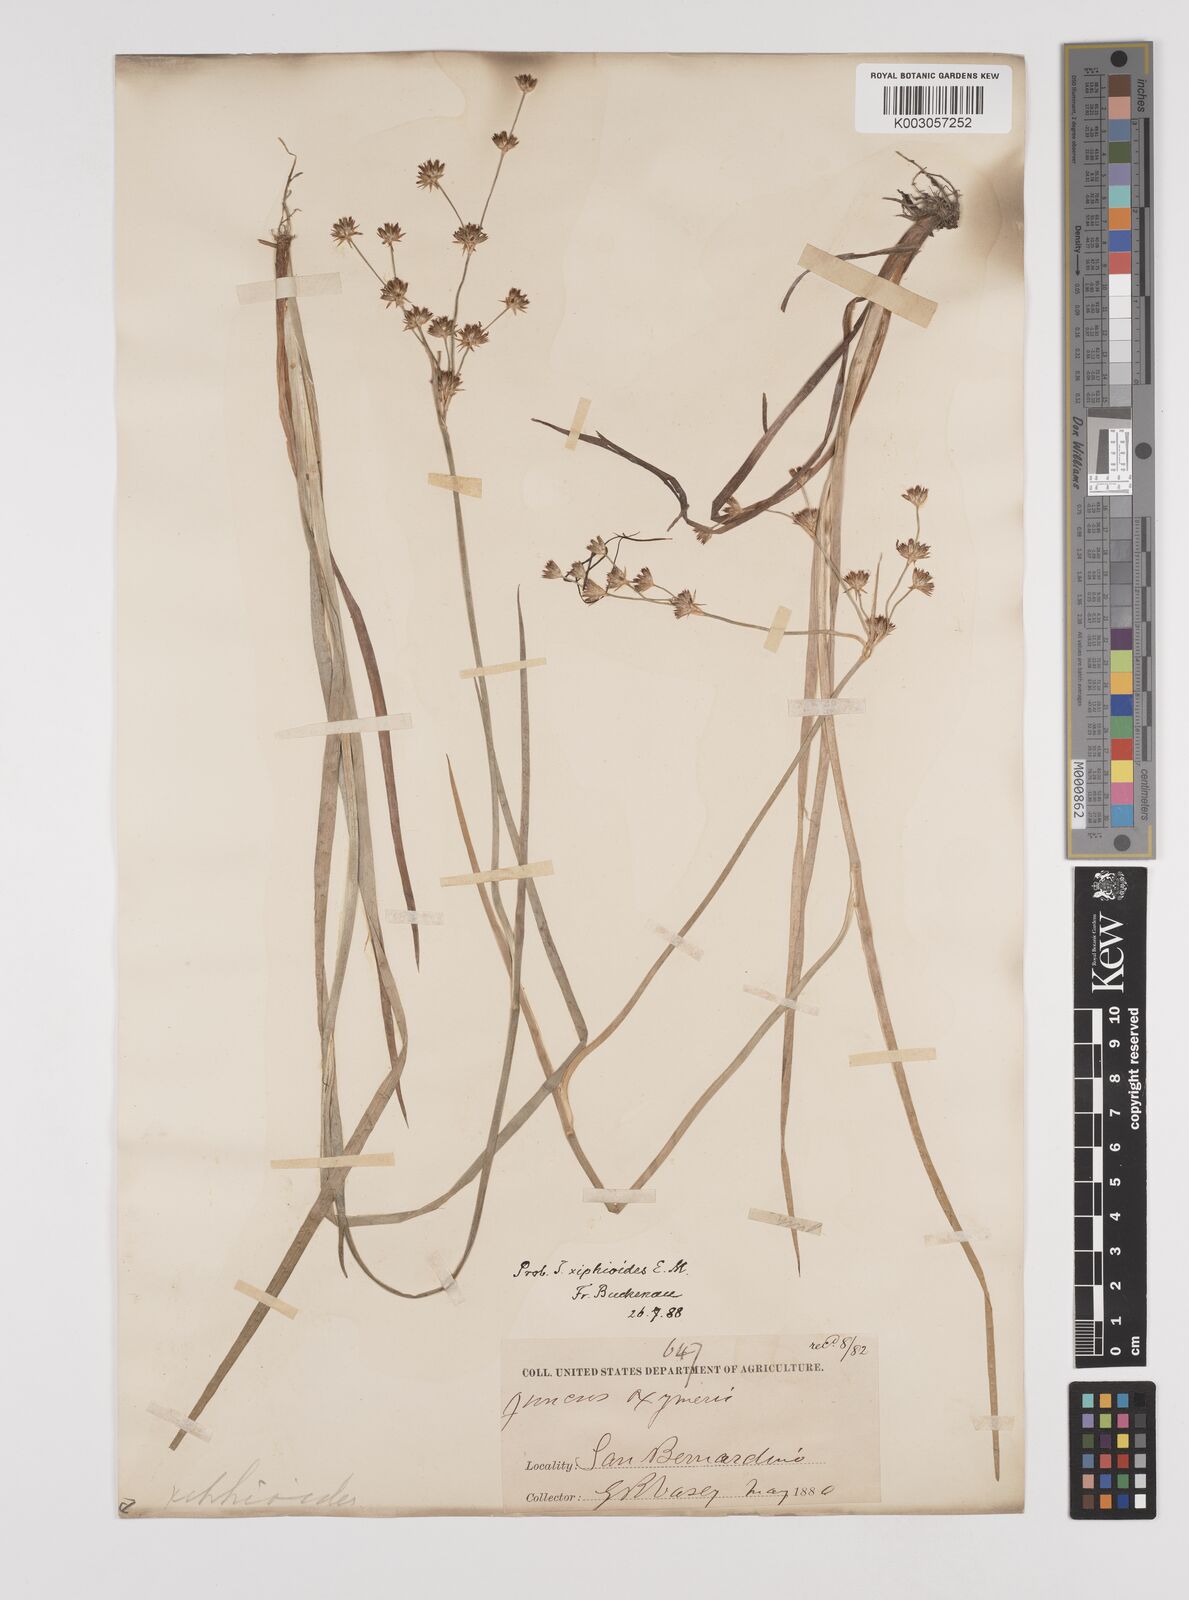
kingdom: Plantae
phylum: Tracheophyta
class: Liliopsida
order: Poales
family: Juncaceae
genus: Juncus
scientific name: Juncus xiphioides
